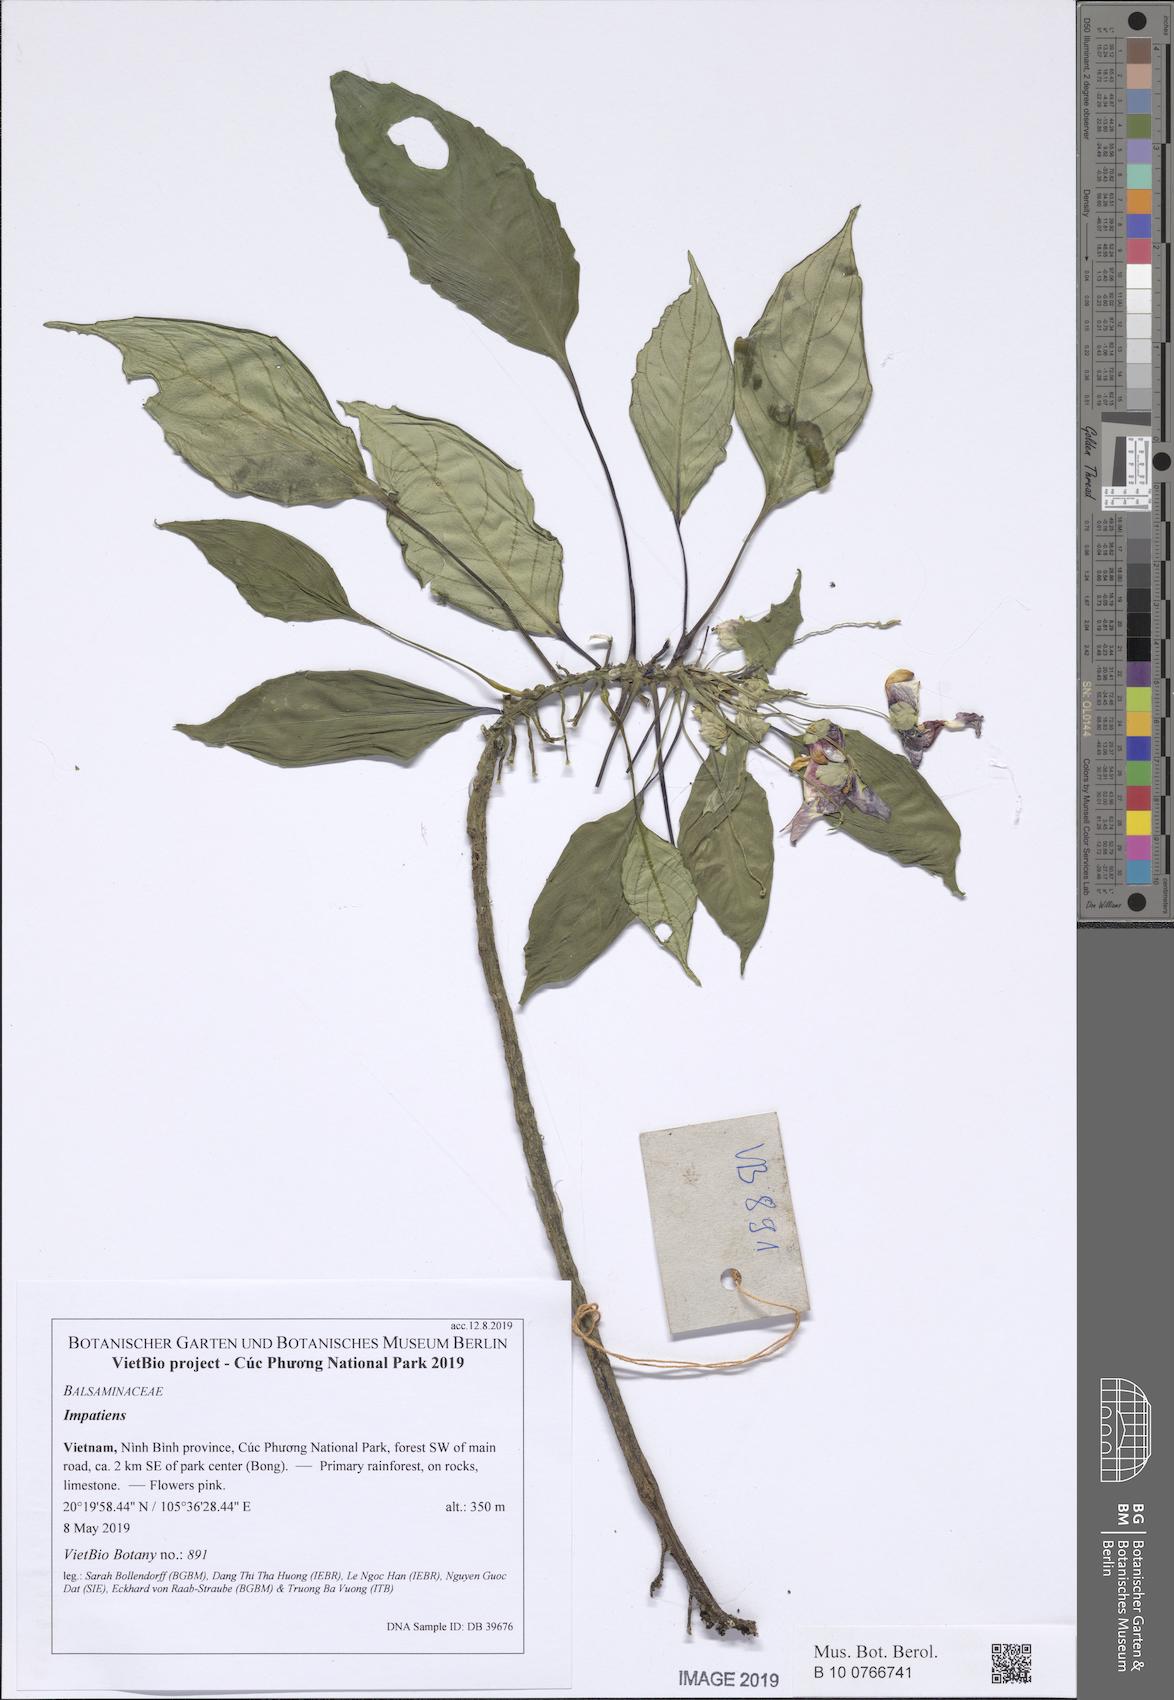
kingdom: Plantae
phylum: Tracheophyta
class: Magnoliopsida
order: Ericales
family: Balsaminaceae
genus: Impatiens
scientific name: Impatiens bonii
